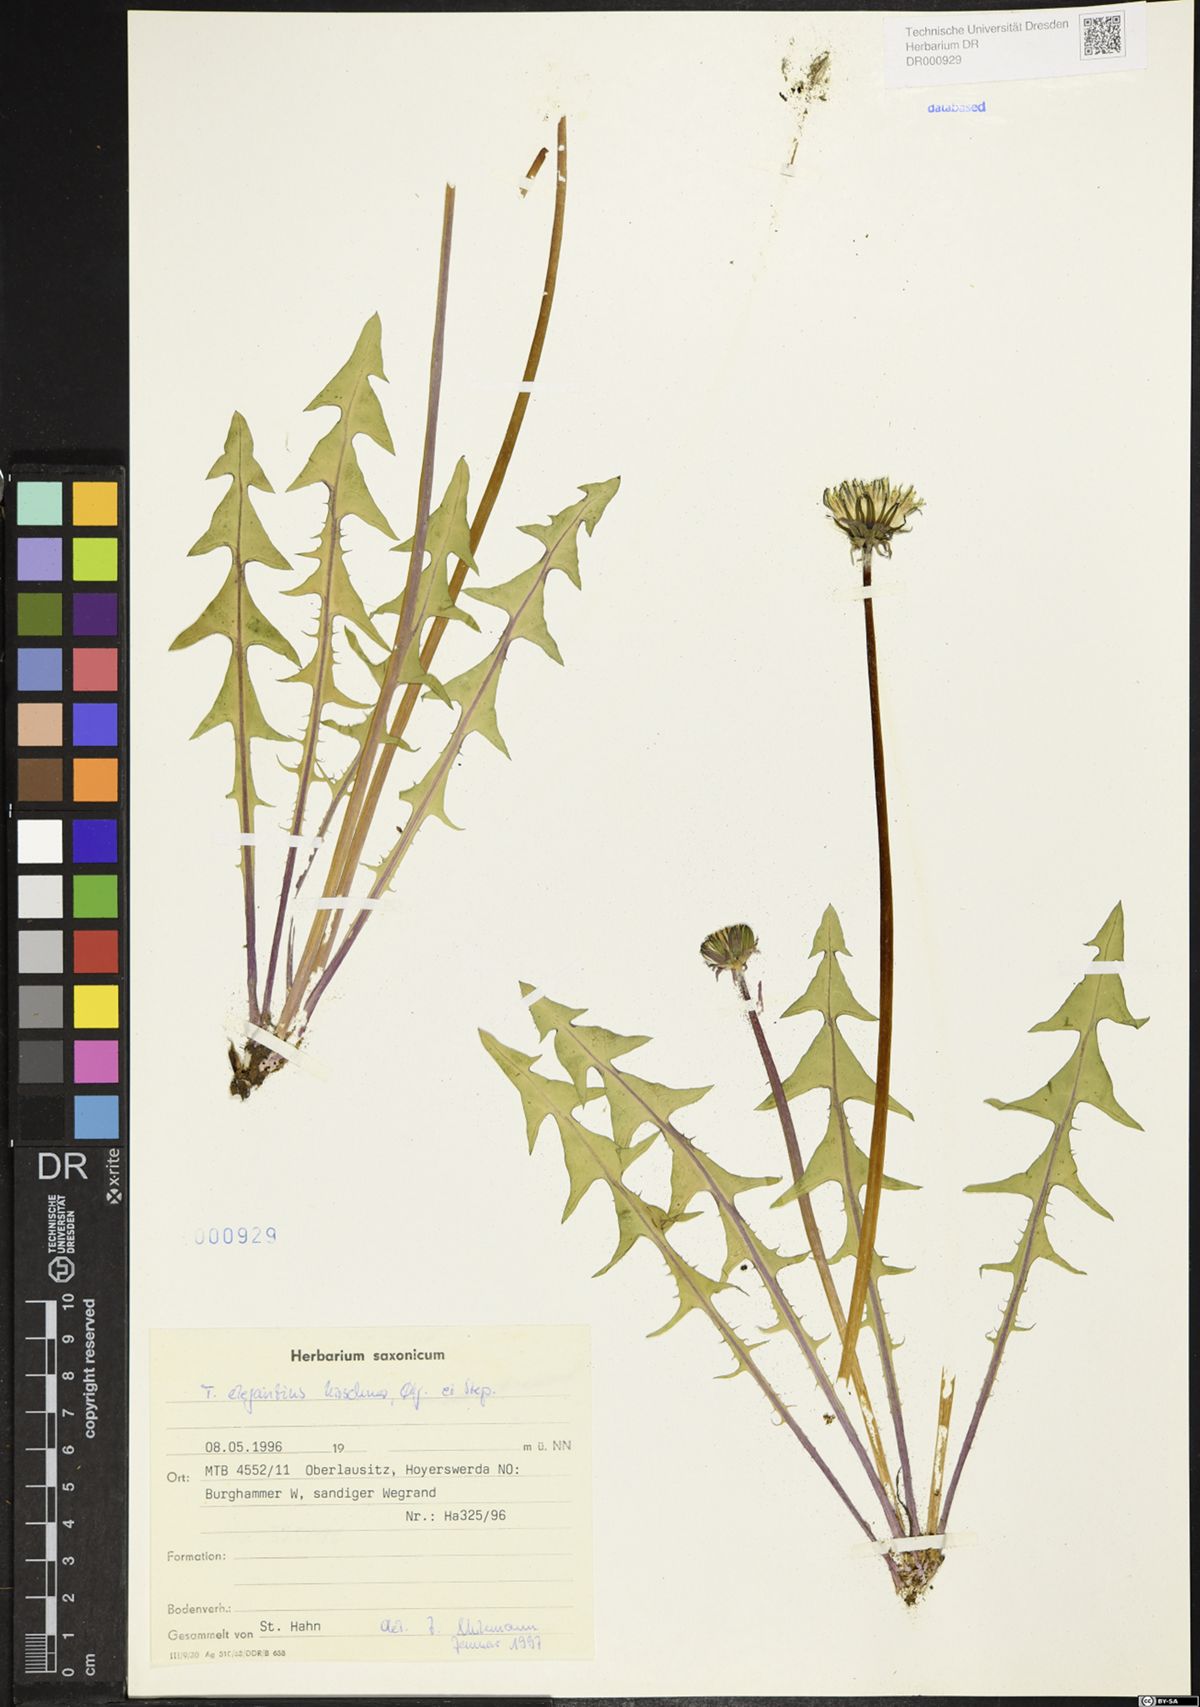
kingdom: Plantae
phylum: Tracheophyta
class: Magnoliopsida
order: Asterales
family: Asteraceae
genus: Taraxacum
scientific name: Taraxacum elegantius
